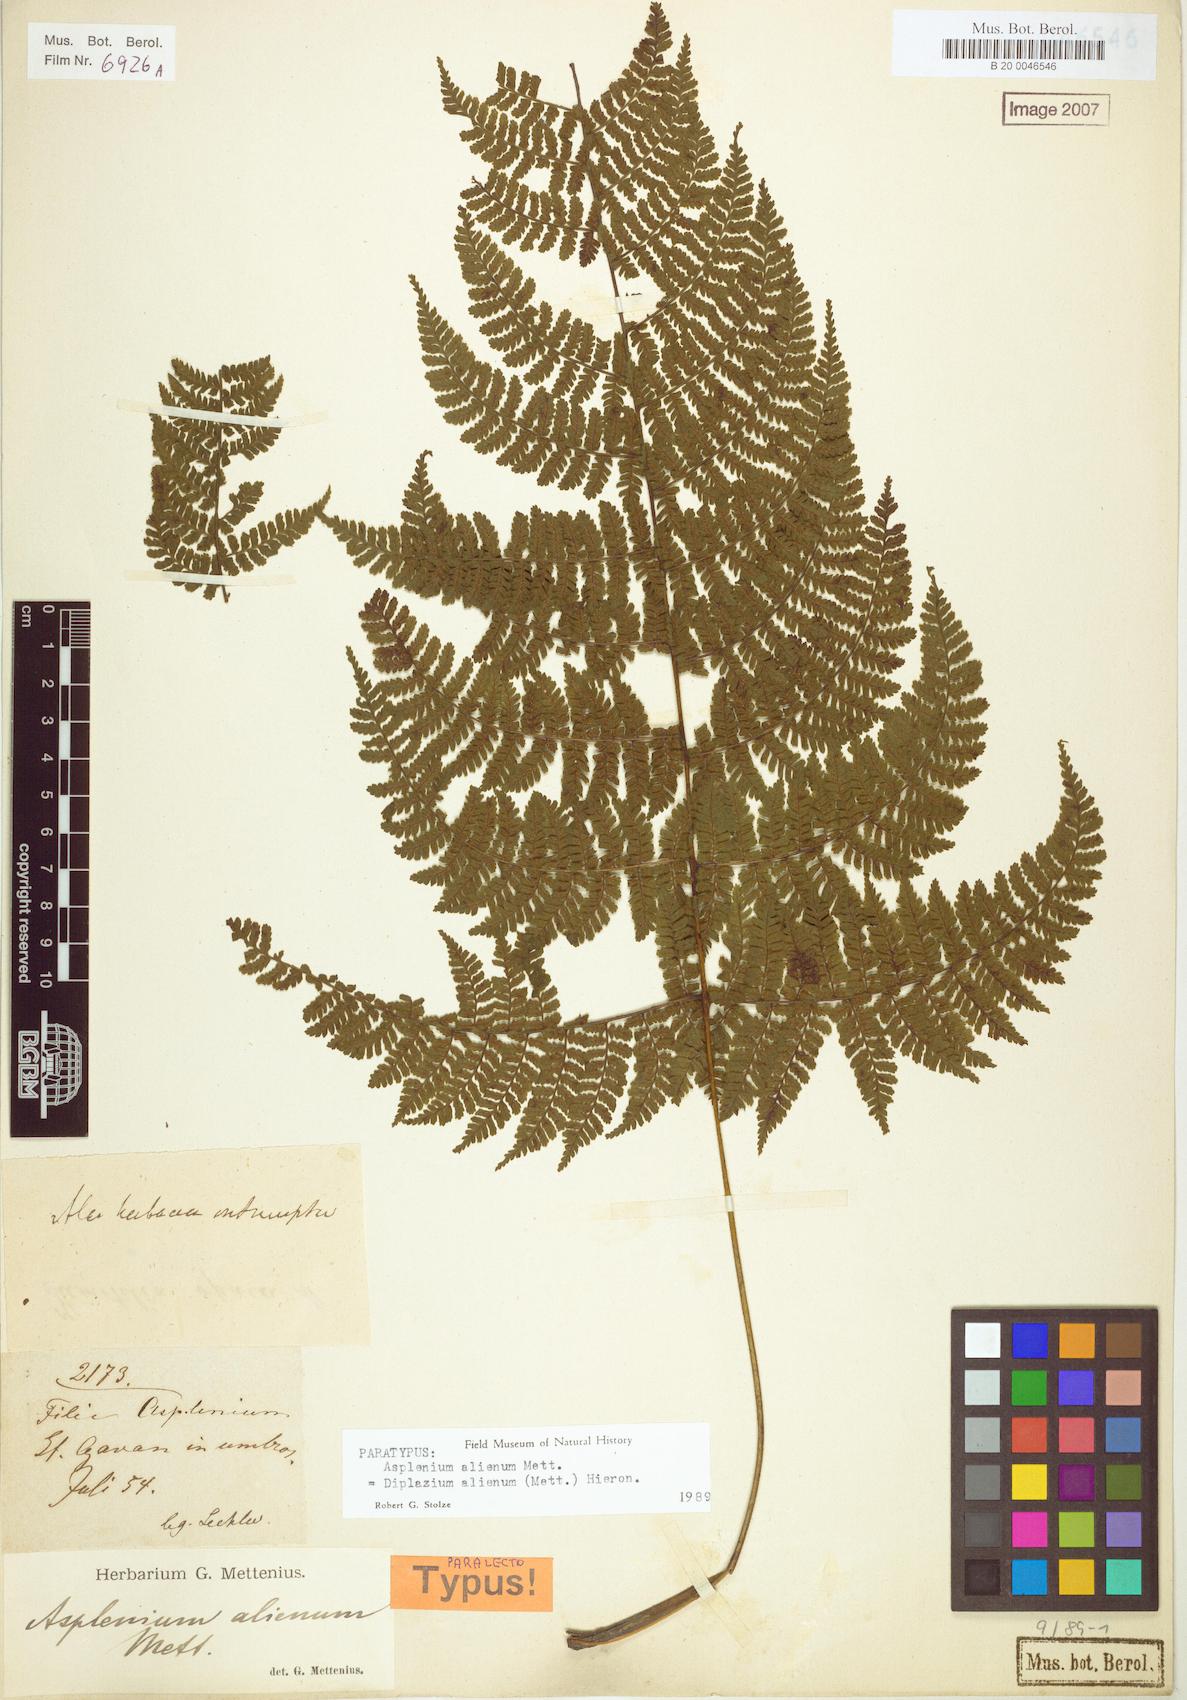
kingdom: Plantae
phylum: Tracheophyta
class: Polypodiopsida
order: Polypodiales
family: Athyriaceae
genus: Diplazium
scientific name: Diplazium alienum
